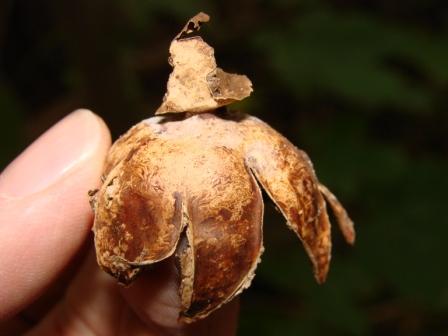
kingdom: Fungi
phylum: Basidiomycota
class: Agaricomycetes
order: Geastrales
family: Geastraceae
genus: Geastrum
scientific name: Geastrum rufescens
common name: kødfarvet stjernebold
